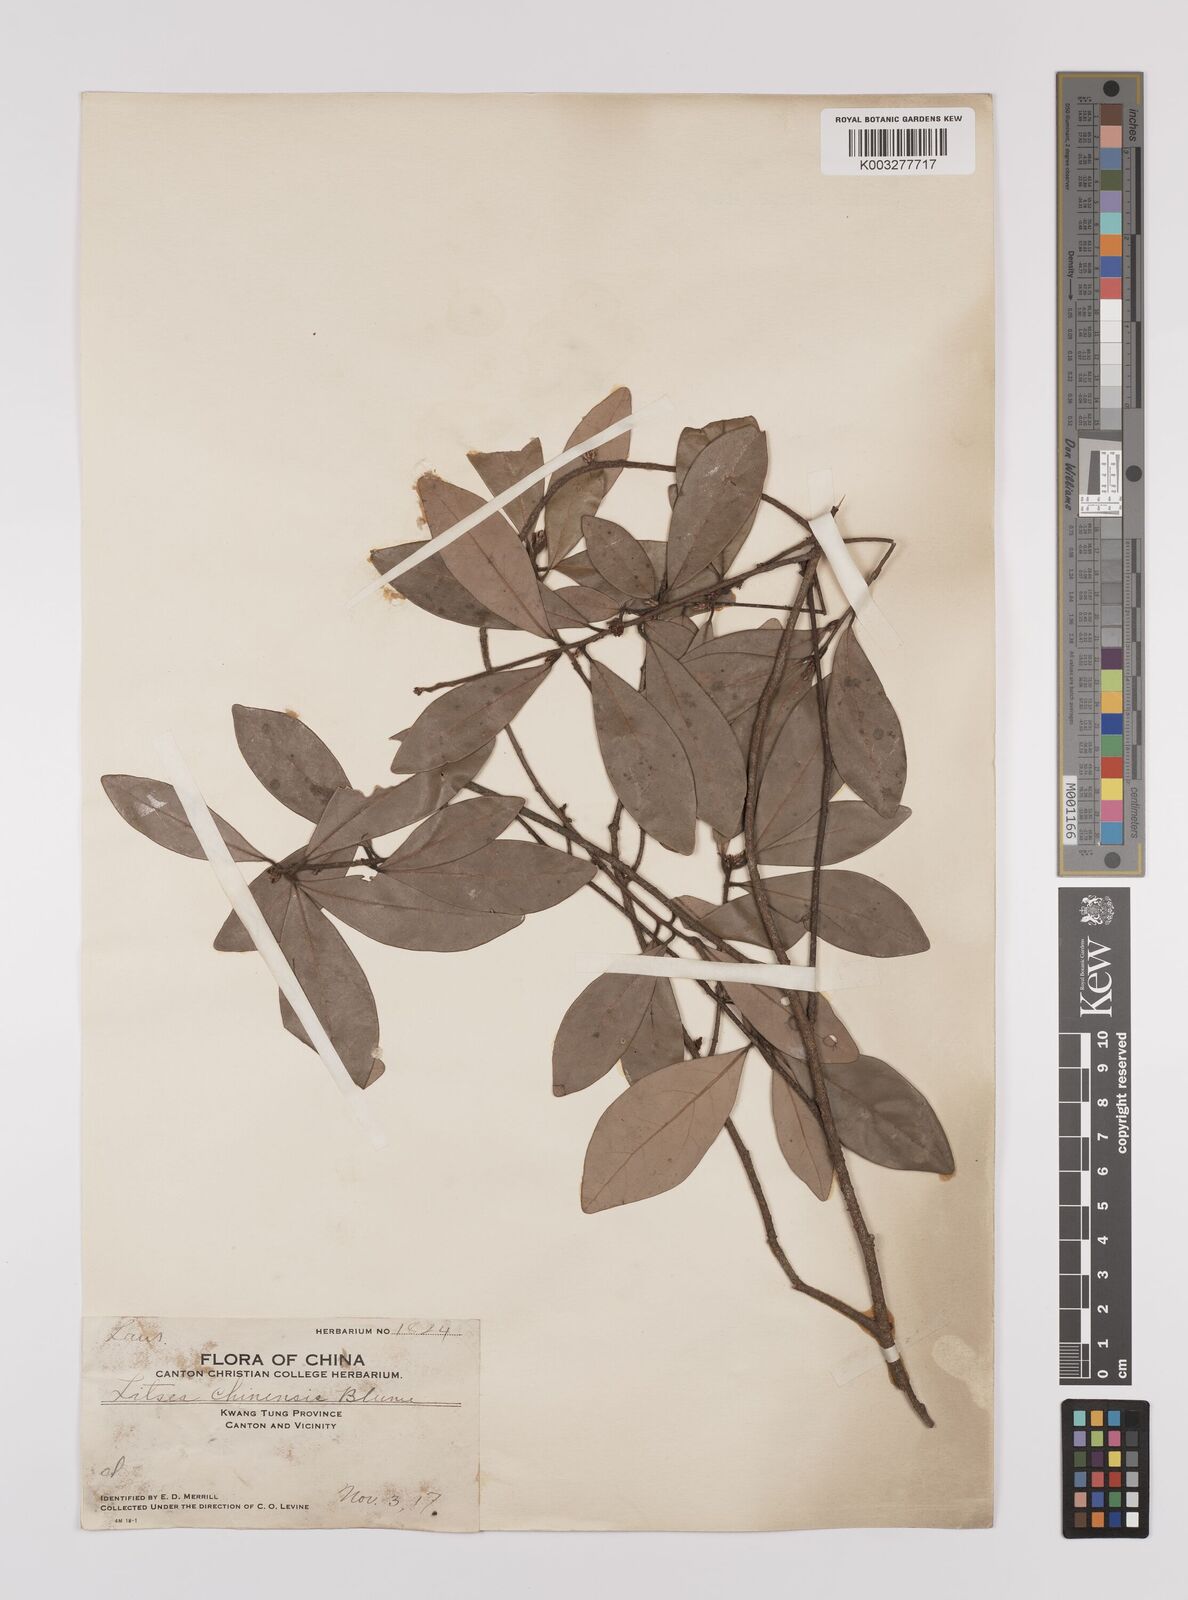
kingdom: Plantae
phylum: Tracheophyta
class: Magnoliopsida
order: Laurales
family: Lauraceae
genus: Litsea
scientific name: Litsea rotundifolia
